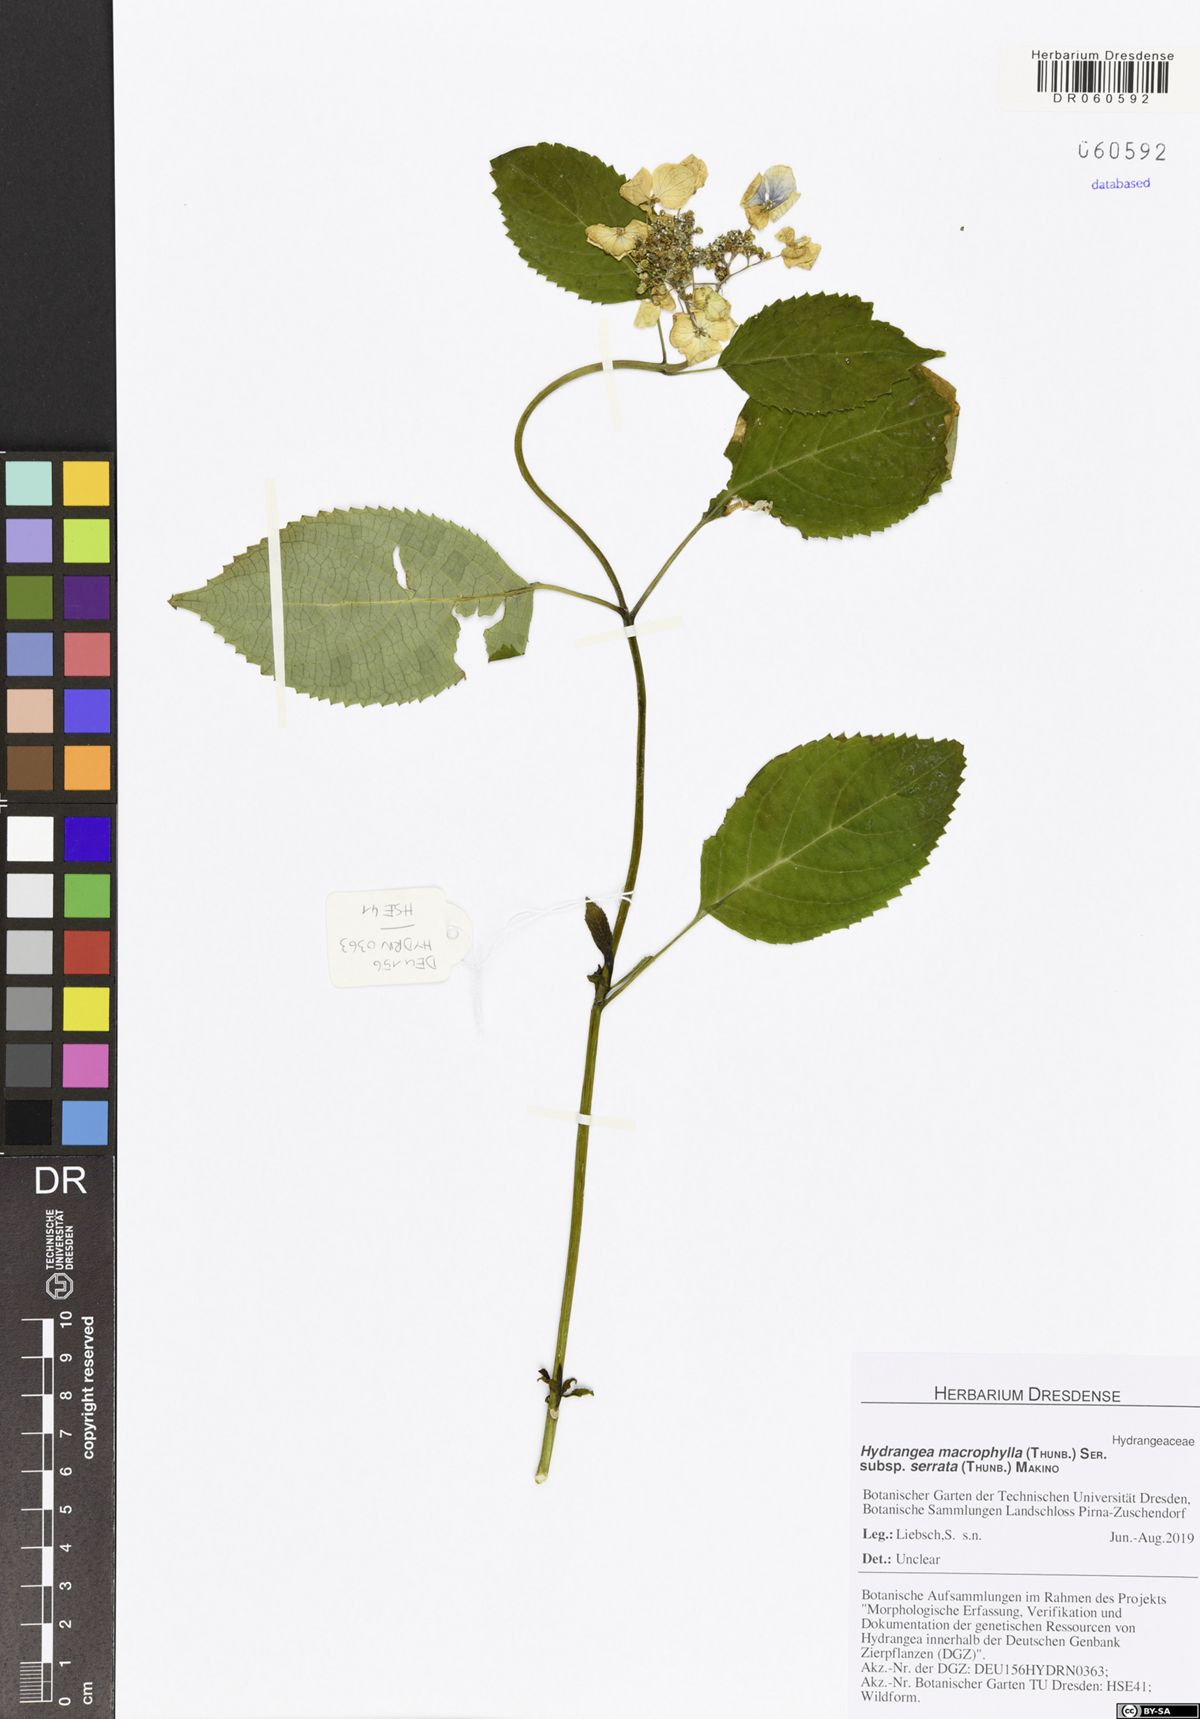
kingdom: Plantae
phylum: Tracheophyta
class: Magnoliopsida
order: Cornales
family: Hydrangeaceae
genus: Hydrangea
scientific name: Hydrangea serrata
